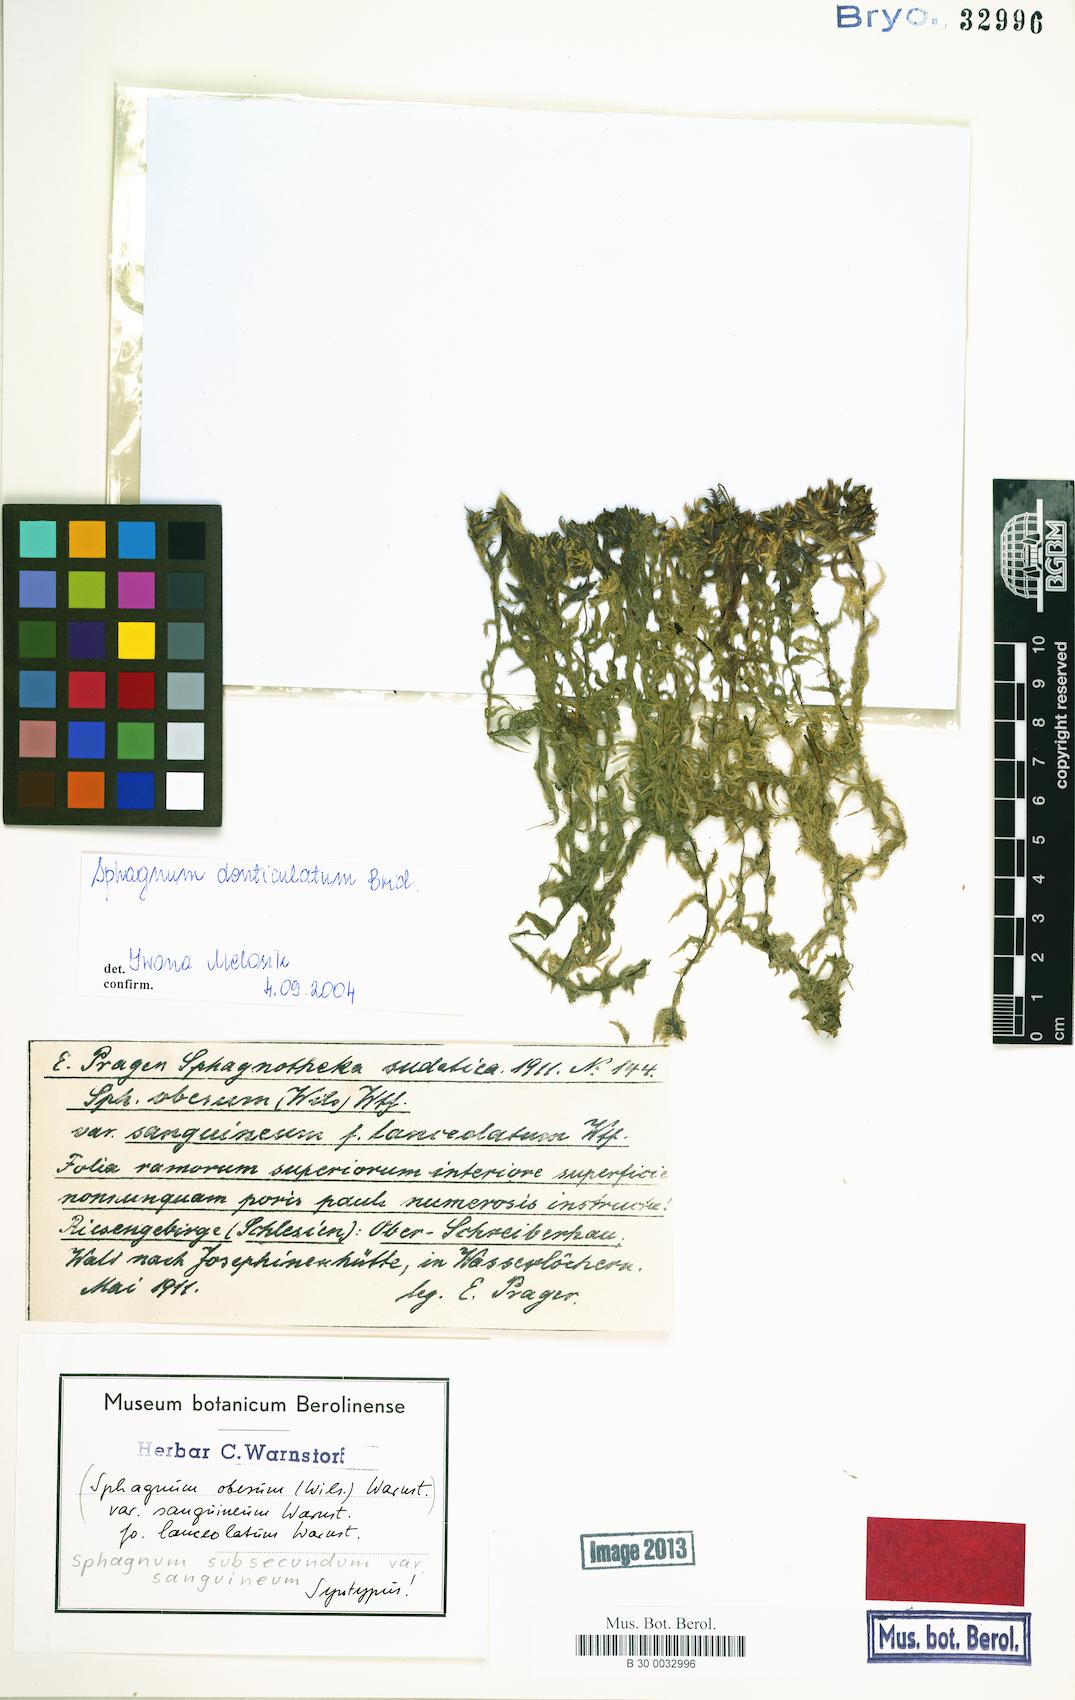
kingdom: Plantae
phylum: Bryophyta
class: Sphagnopsida
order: Sphagnales
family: Sphagnaceae
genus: Sphagnum
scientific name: Sphagnum denticulatum
